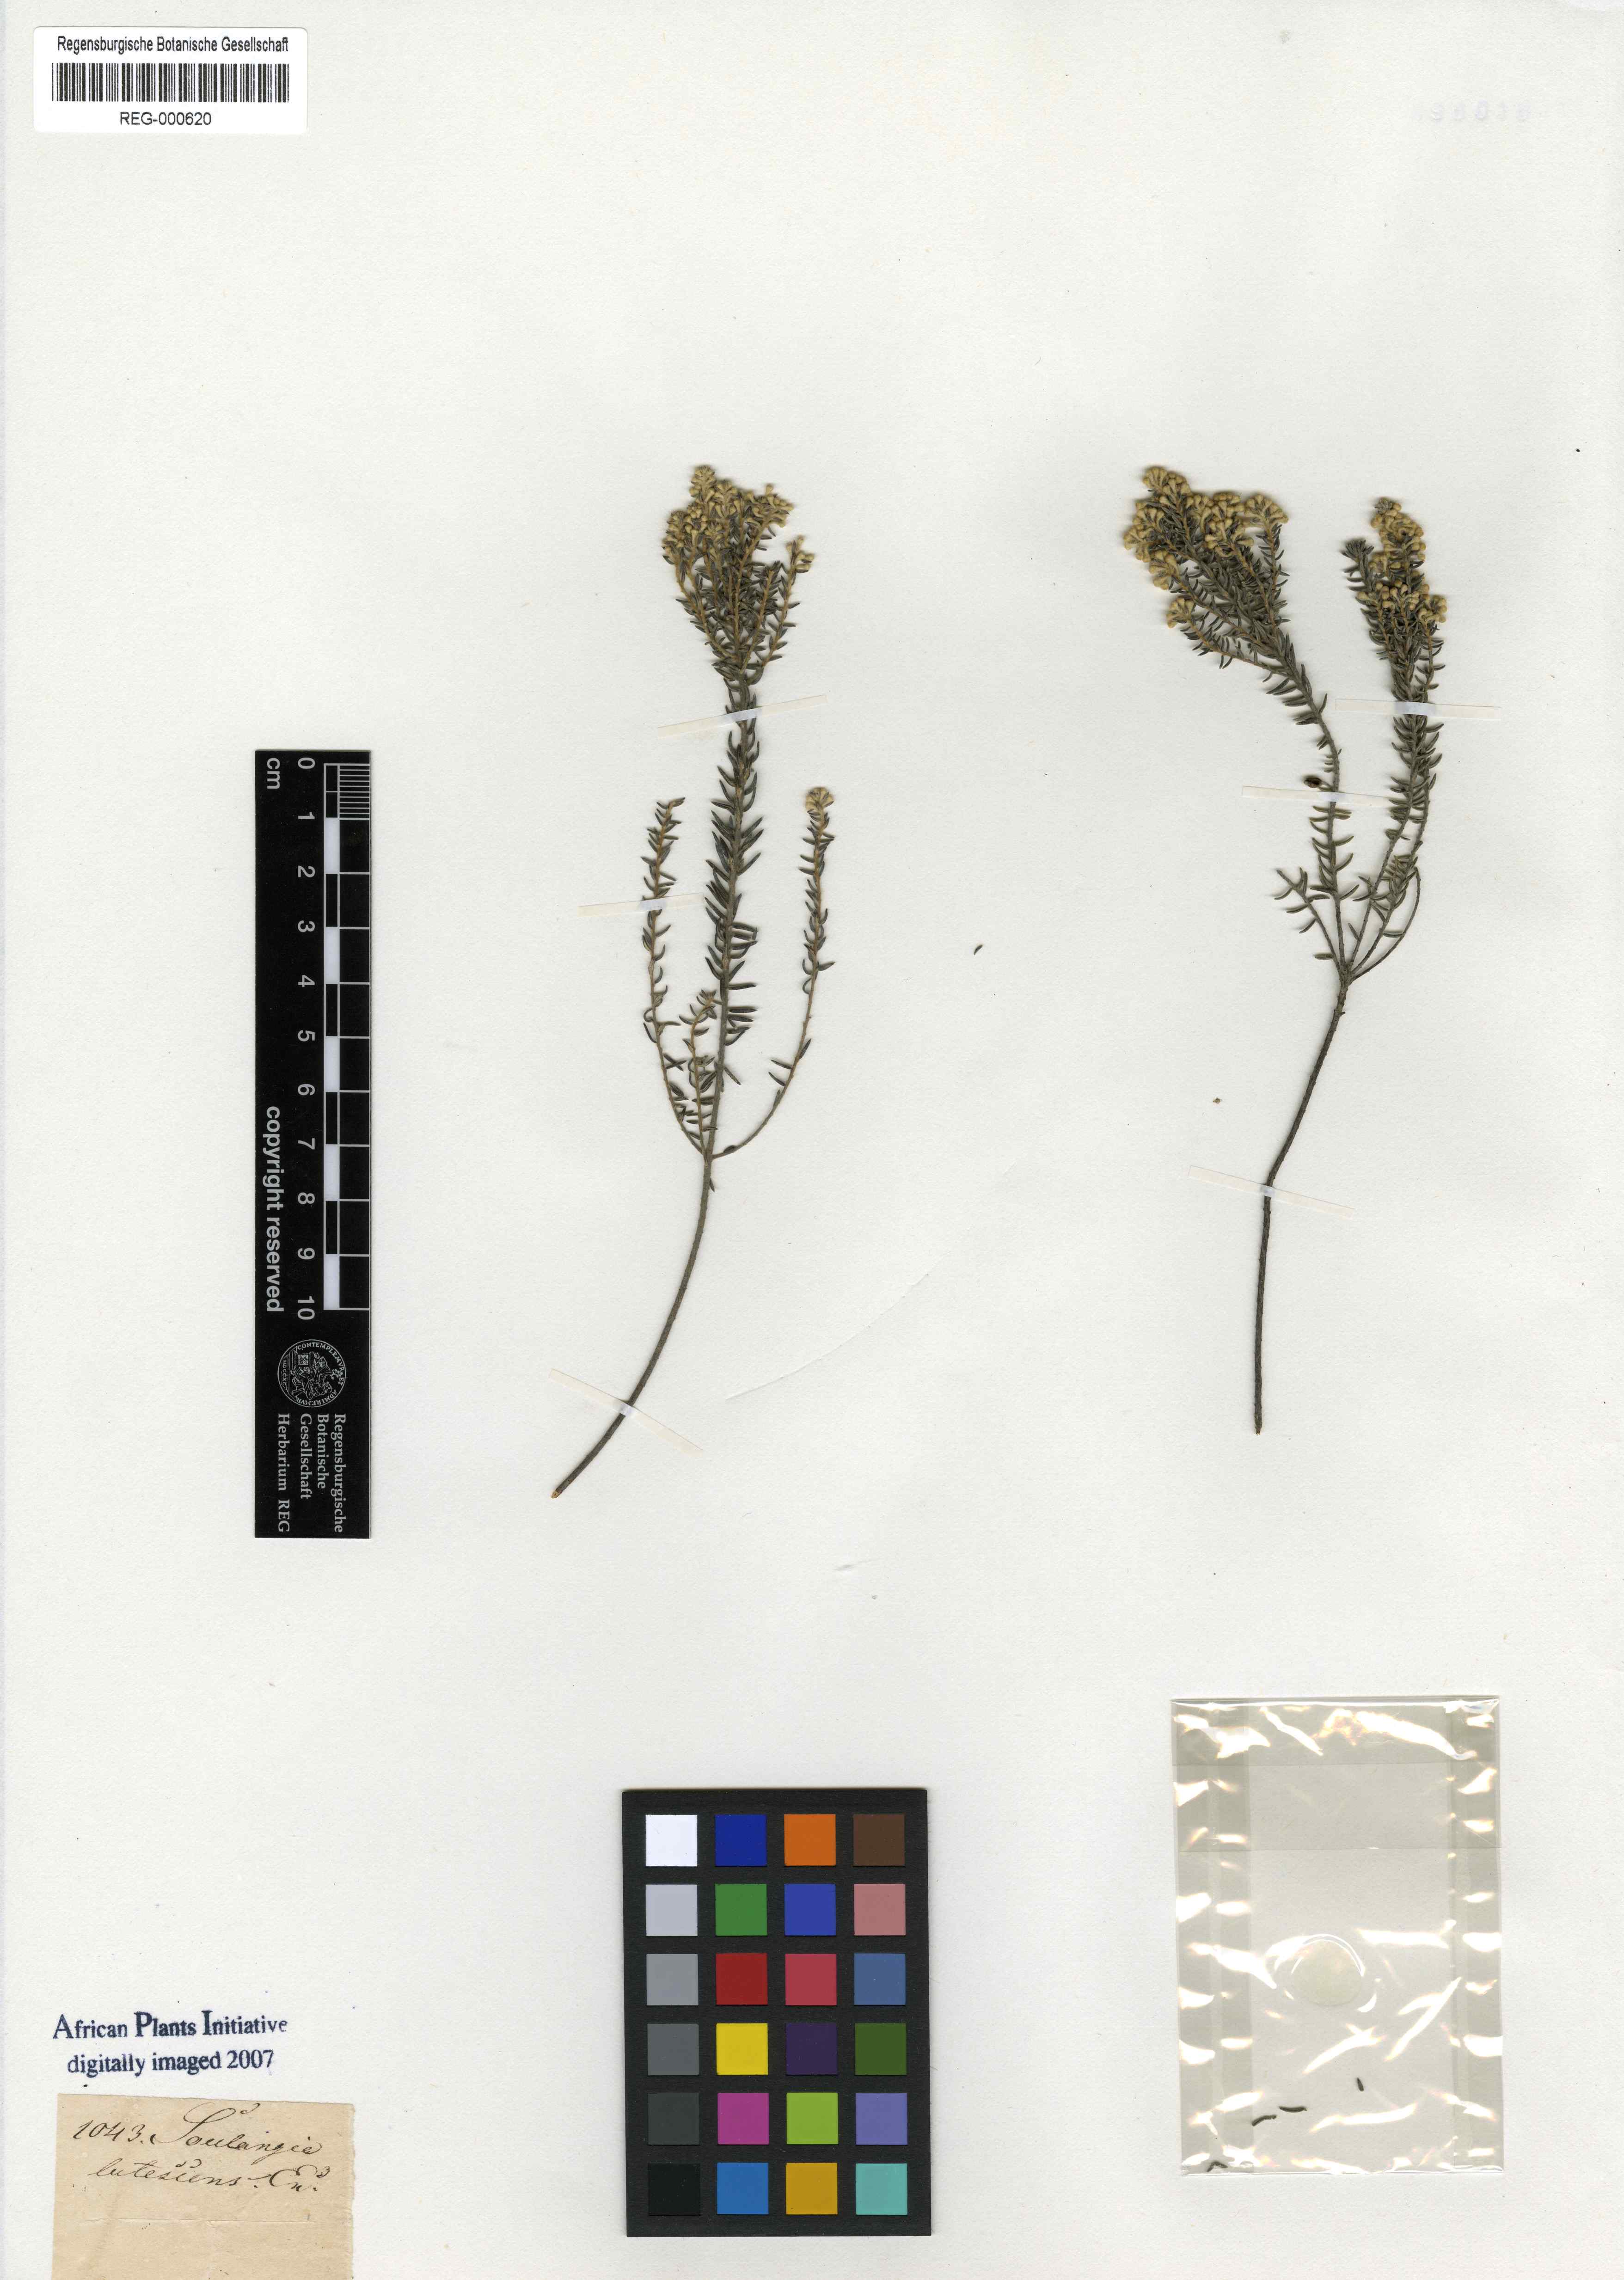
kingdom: Plantae
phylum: Tracheophyta
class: Magnoliopsida
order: Rosales
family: Rhamnaceae
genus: Phylica
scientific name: Phylica axillaris
